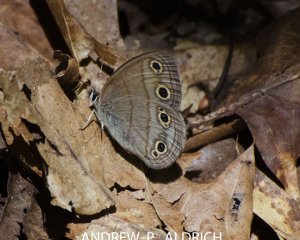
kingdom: Animalia
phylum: Arthropoda
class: Insecta
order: Lepidoptera
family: Nymphalidae
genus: Euptychia
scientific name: Euptychia cymela
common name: Little Wood Satyr
